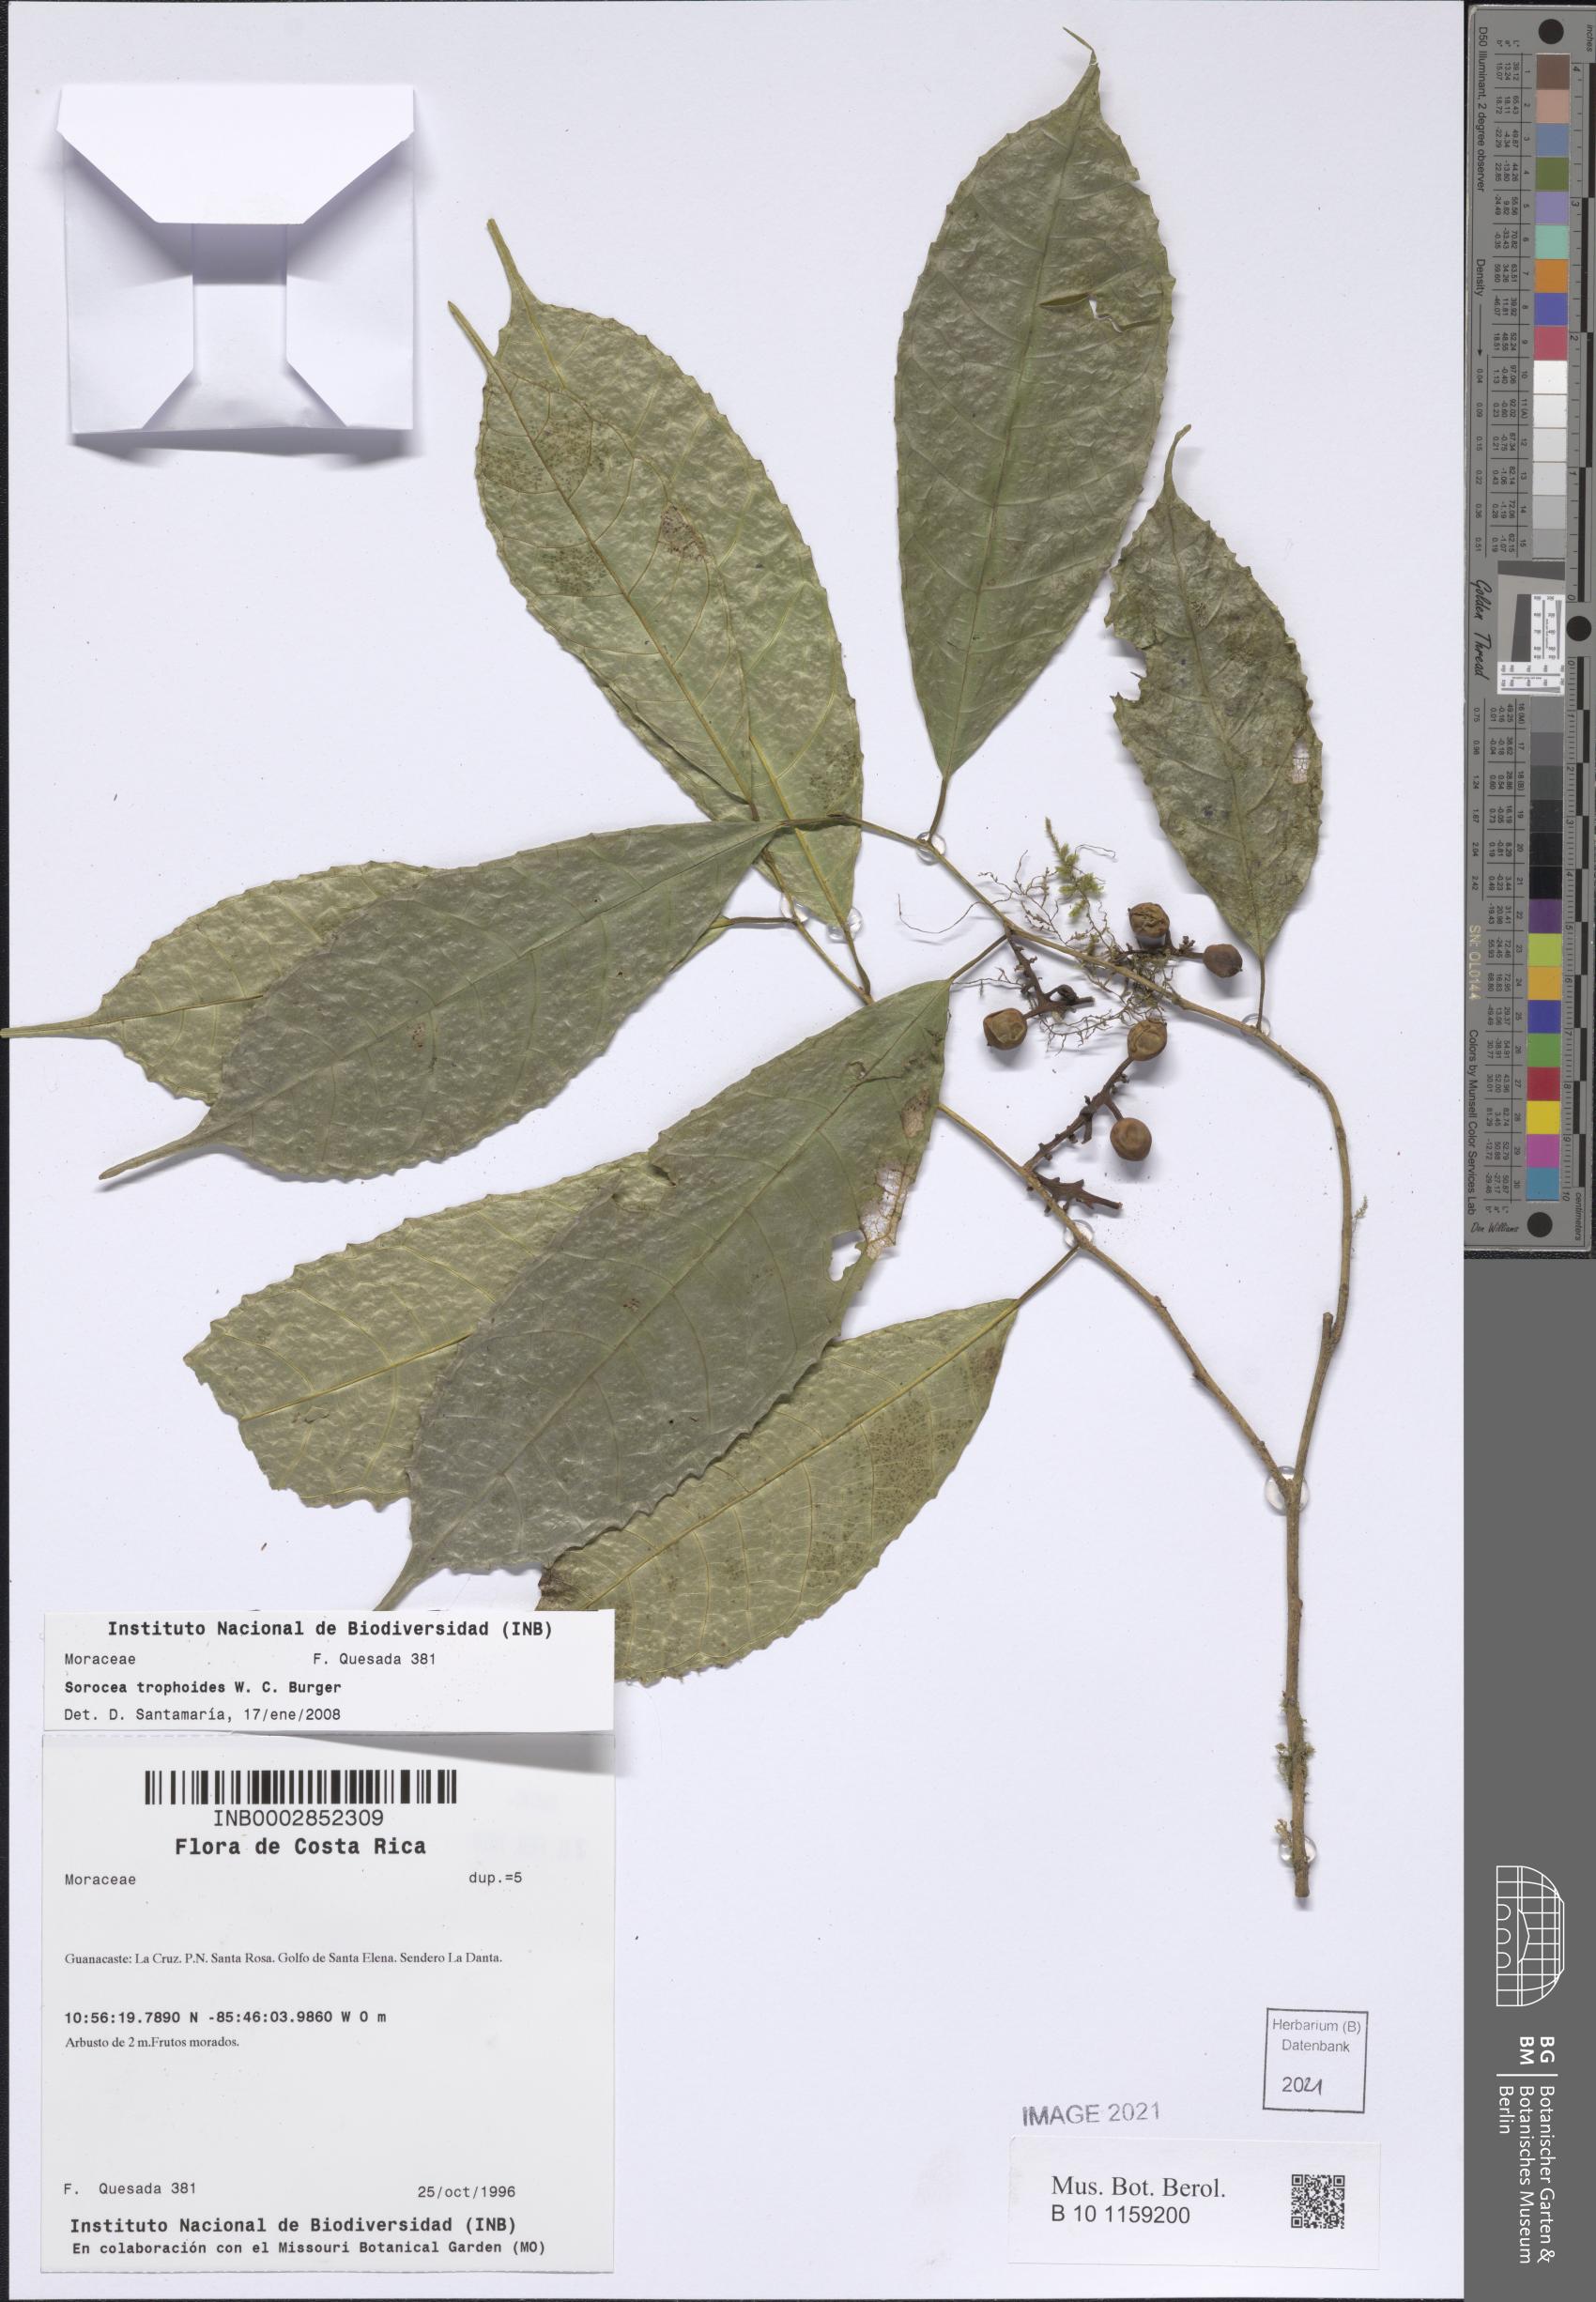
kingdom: Plantae
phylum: Tracheophyta
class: Magnoliopsida
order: Rosales
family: Moraceae
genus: Sorocea
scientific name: Sorocea trophoides
